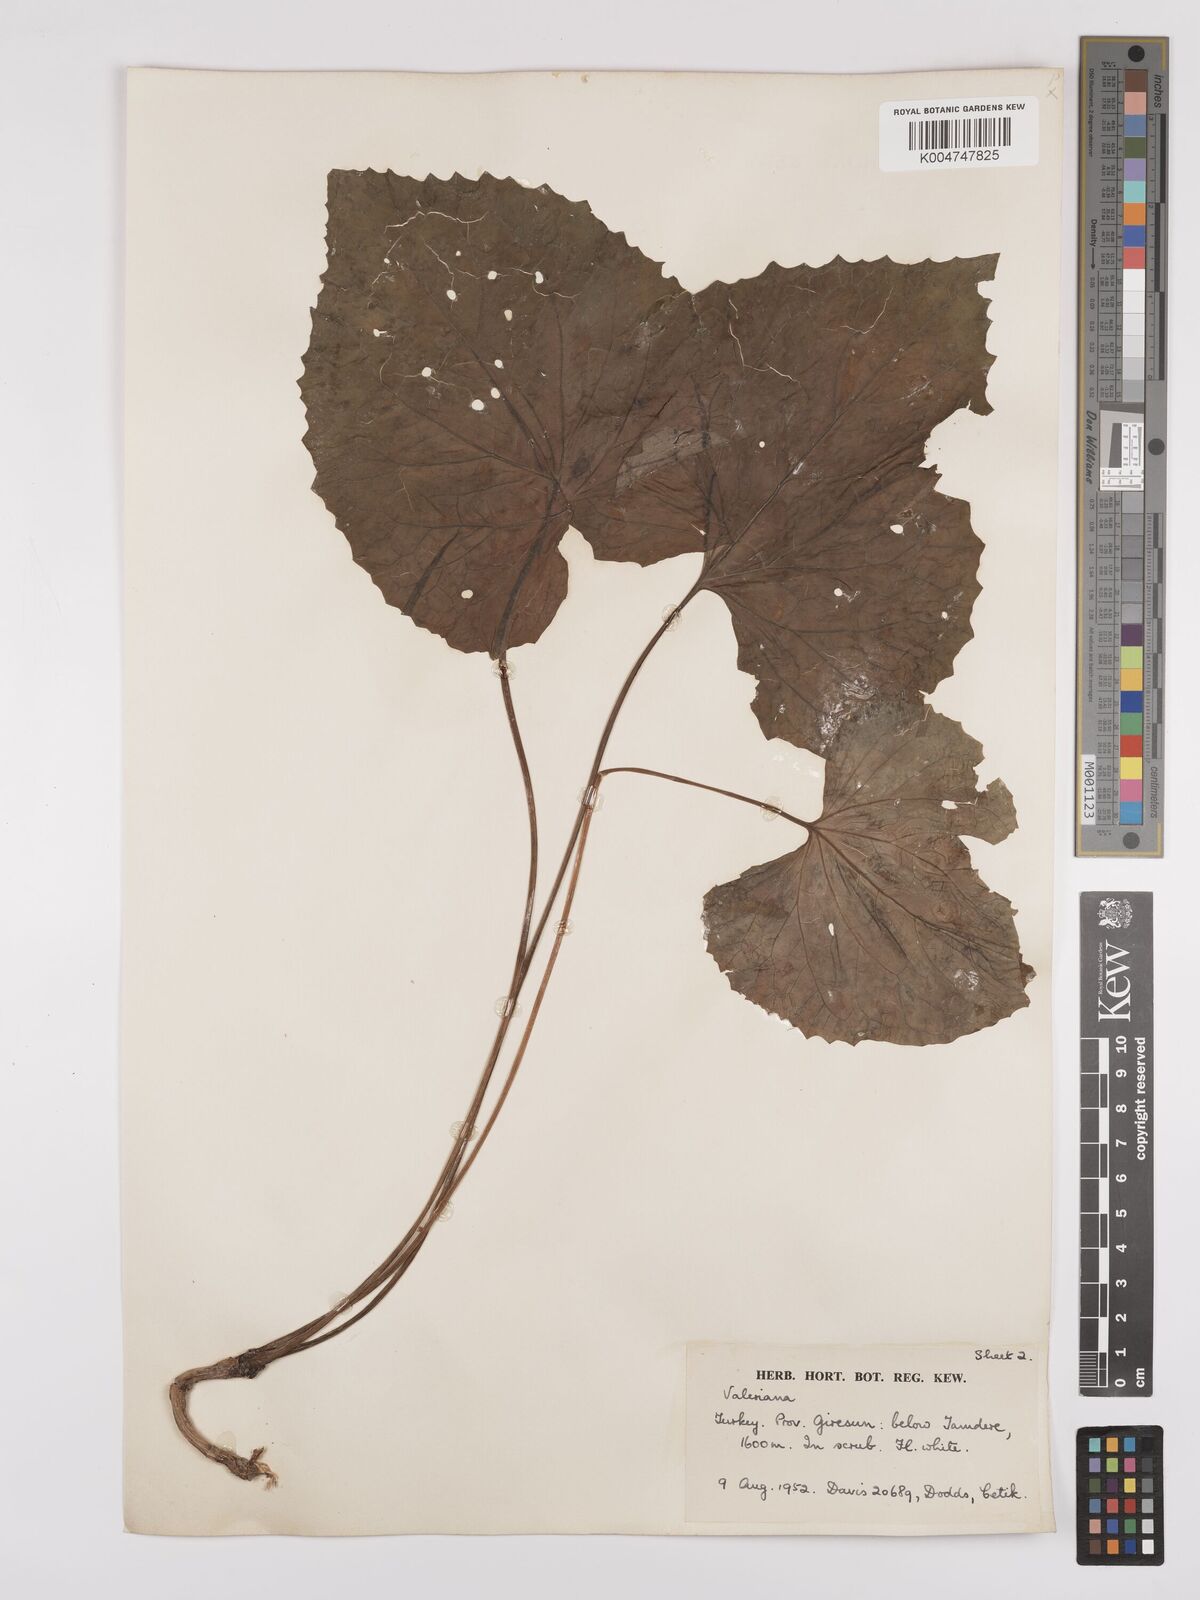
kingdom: Plantae
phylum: Tracheophyta
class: Magnoliopsida
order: Dipsacales
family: Caprifoliaceae
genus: Valeriana
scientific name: Valeriana
